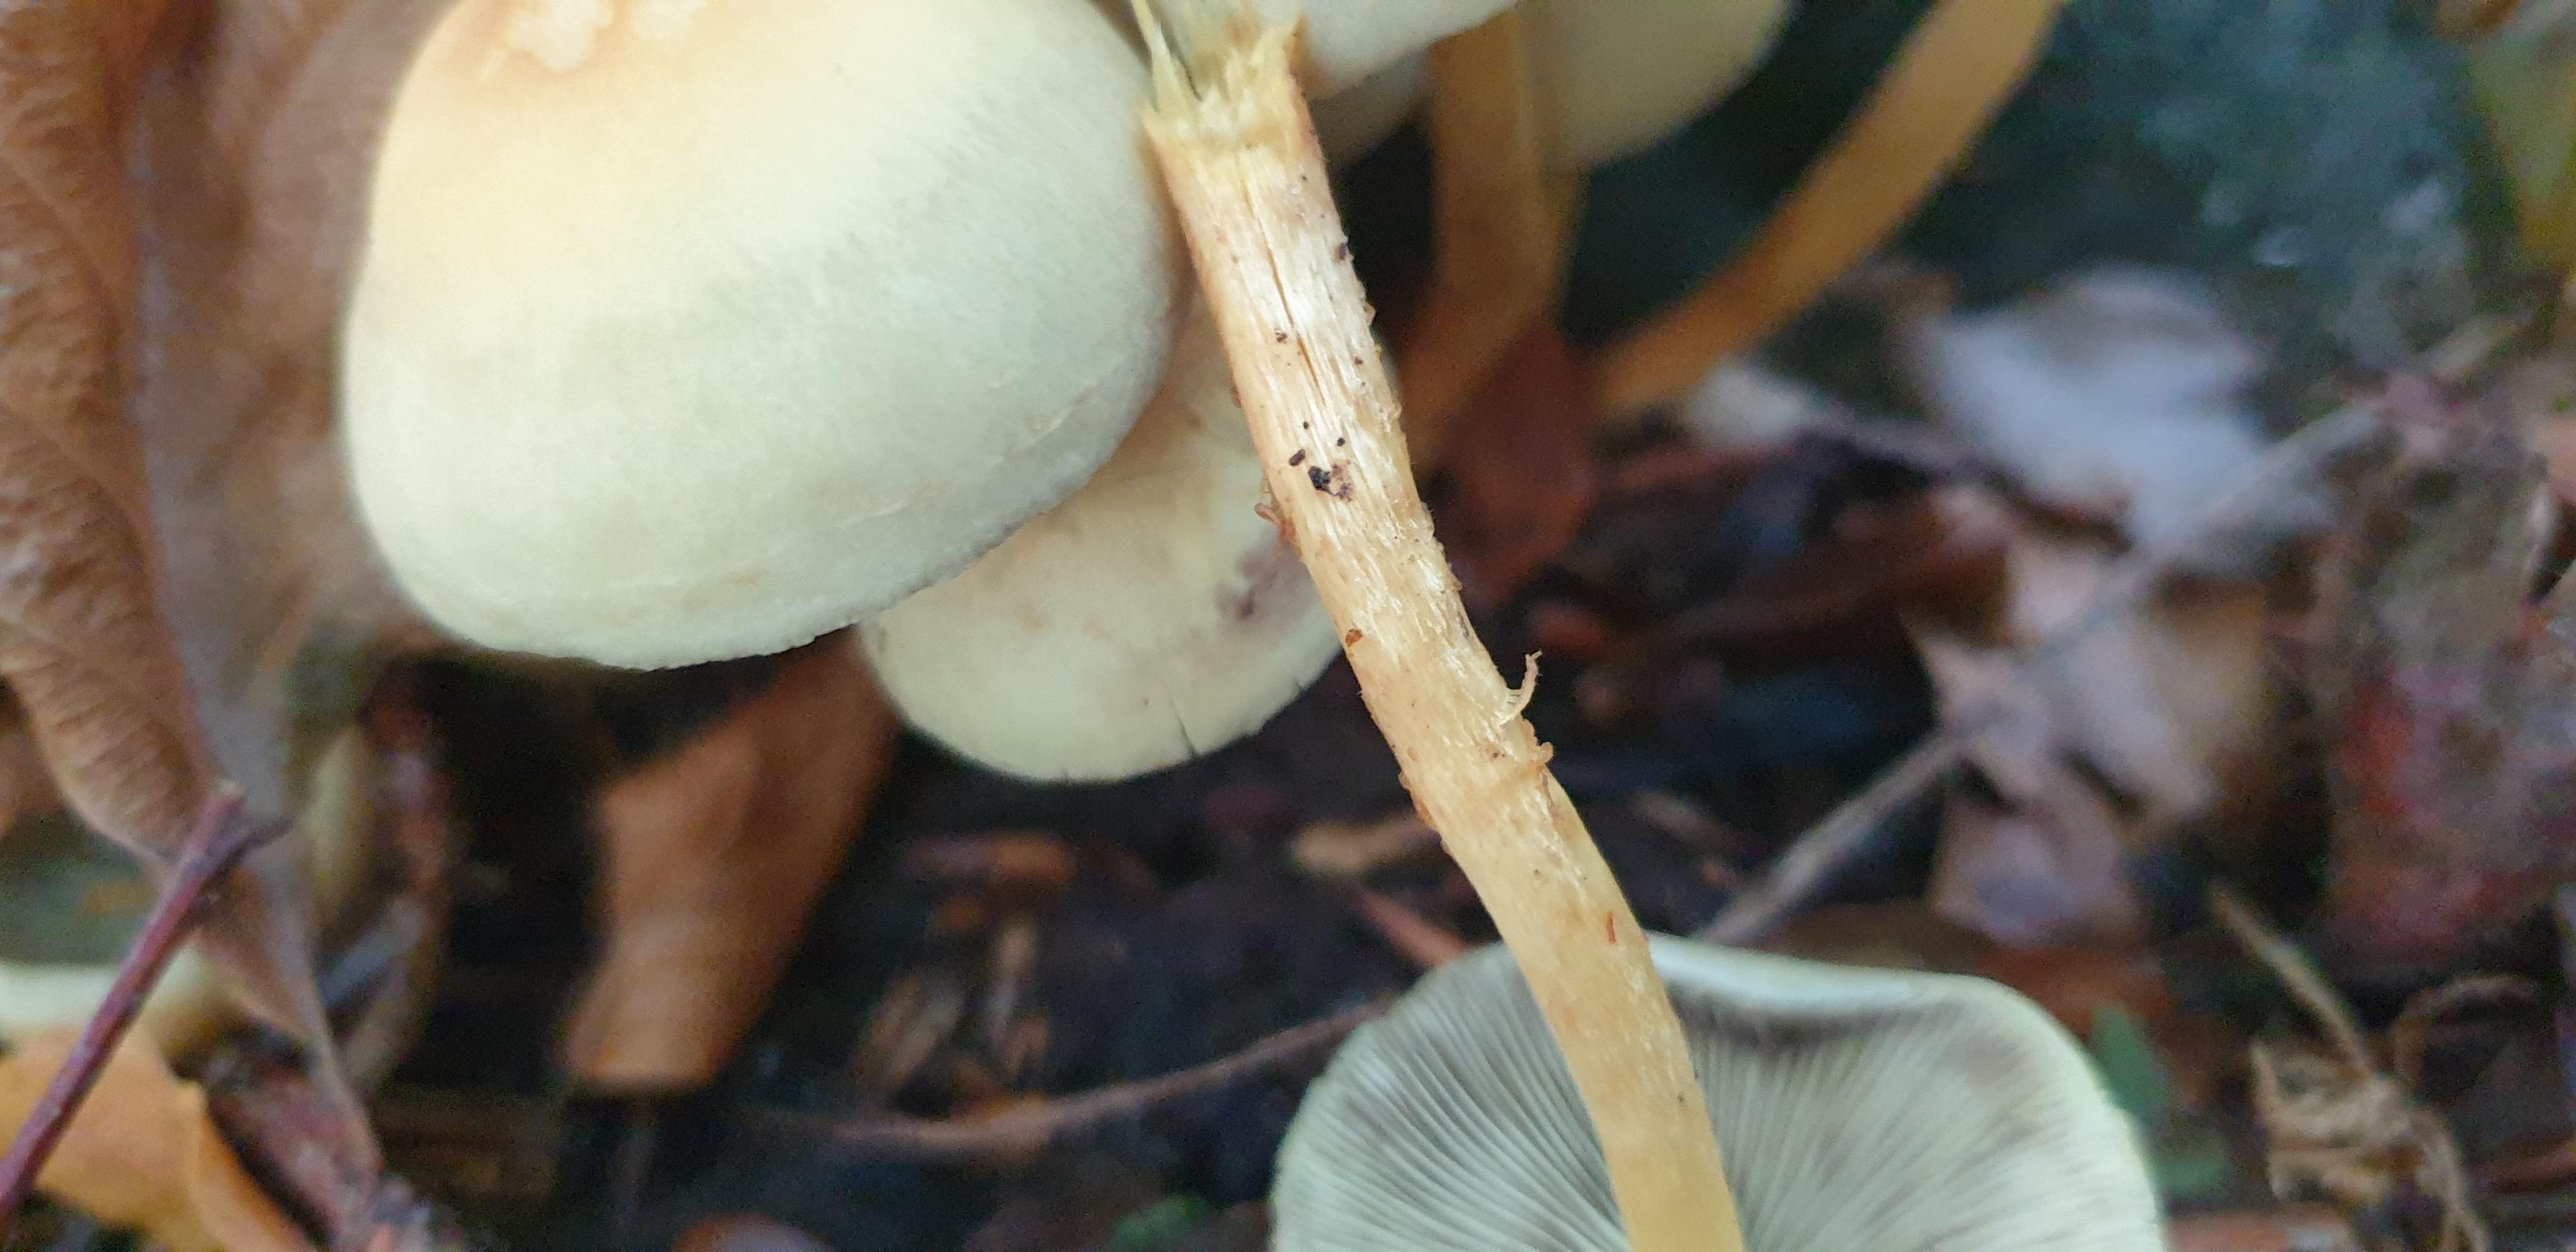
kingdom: Fungi
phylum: Basidiomycota
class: Agaricomycetes
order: Agaricales
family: Strophariaceae
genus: Hypholoma
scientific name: Hypholoma fasciculare
